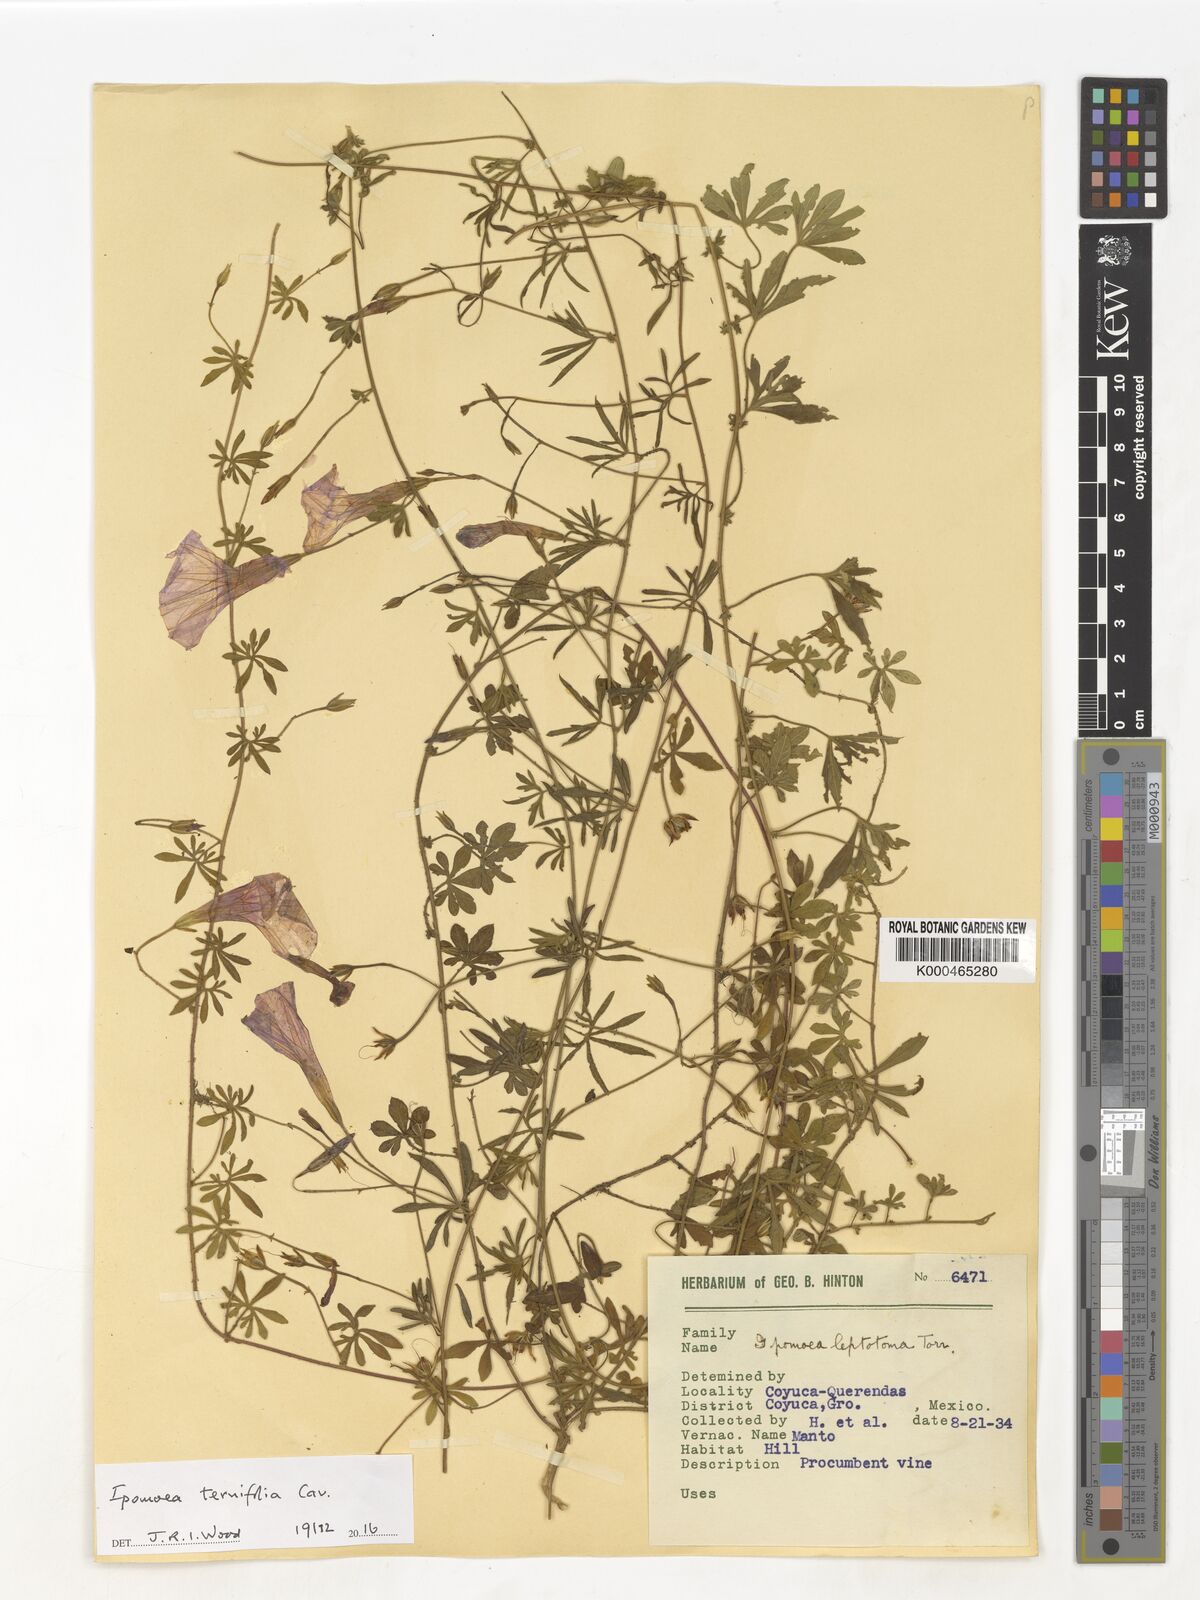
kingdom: Plantae
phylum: Tracheophyta
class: Magnoliopsida
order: Solanales
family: Convolvulaceae
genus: Ipomoea
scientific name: Ipomoea ternifolia
